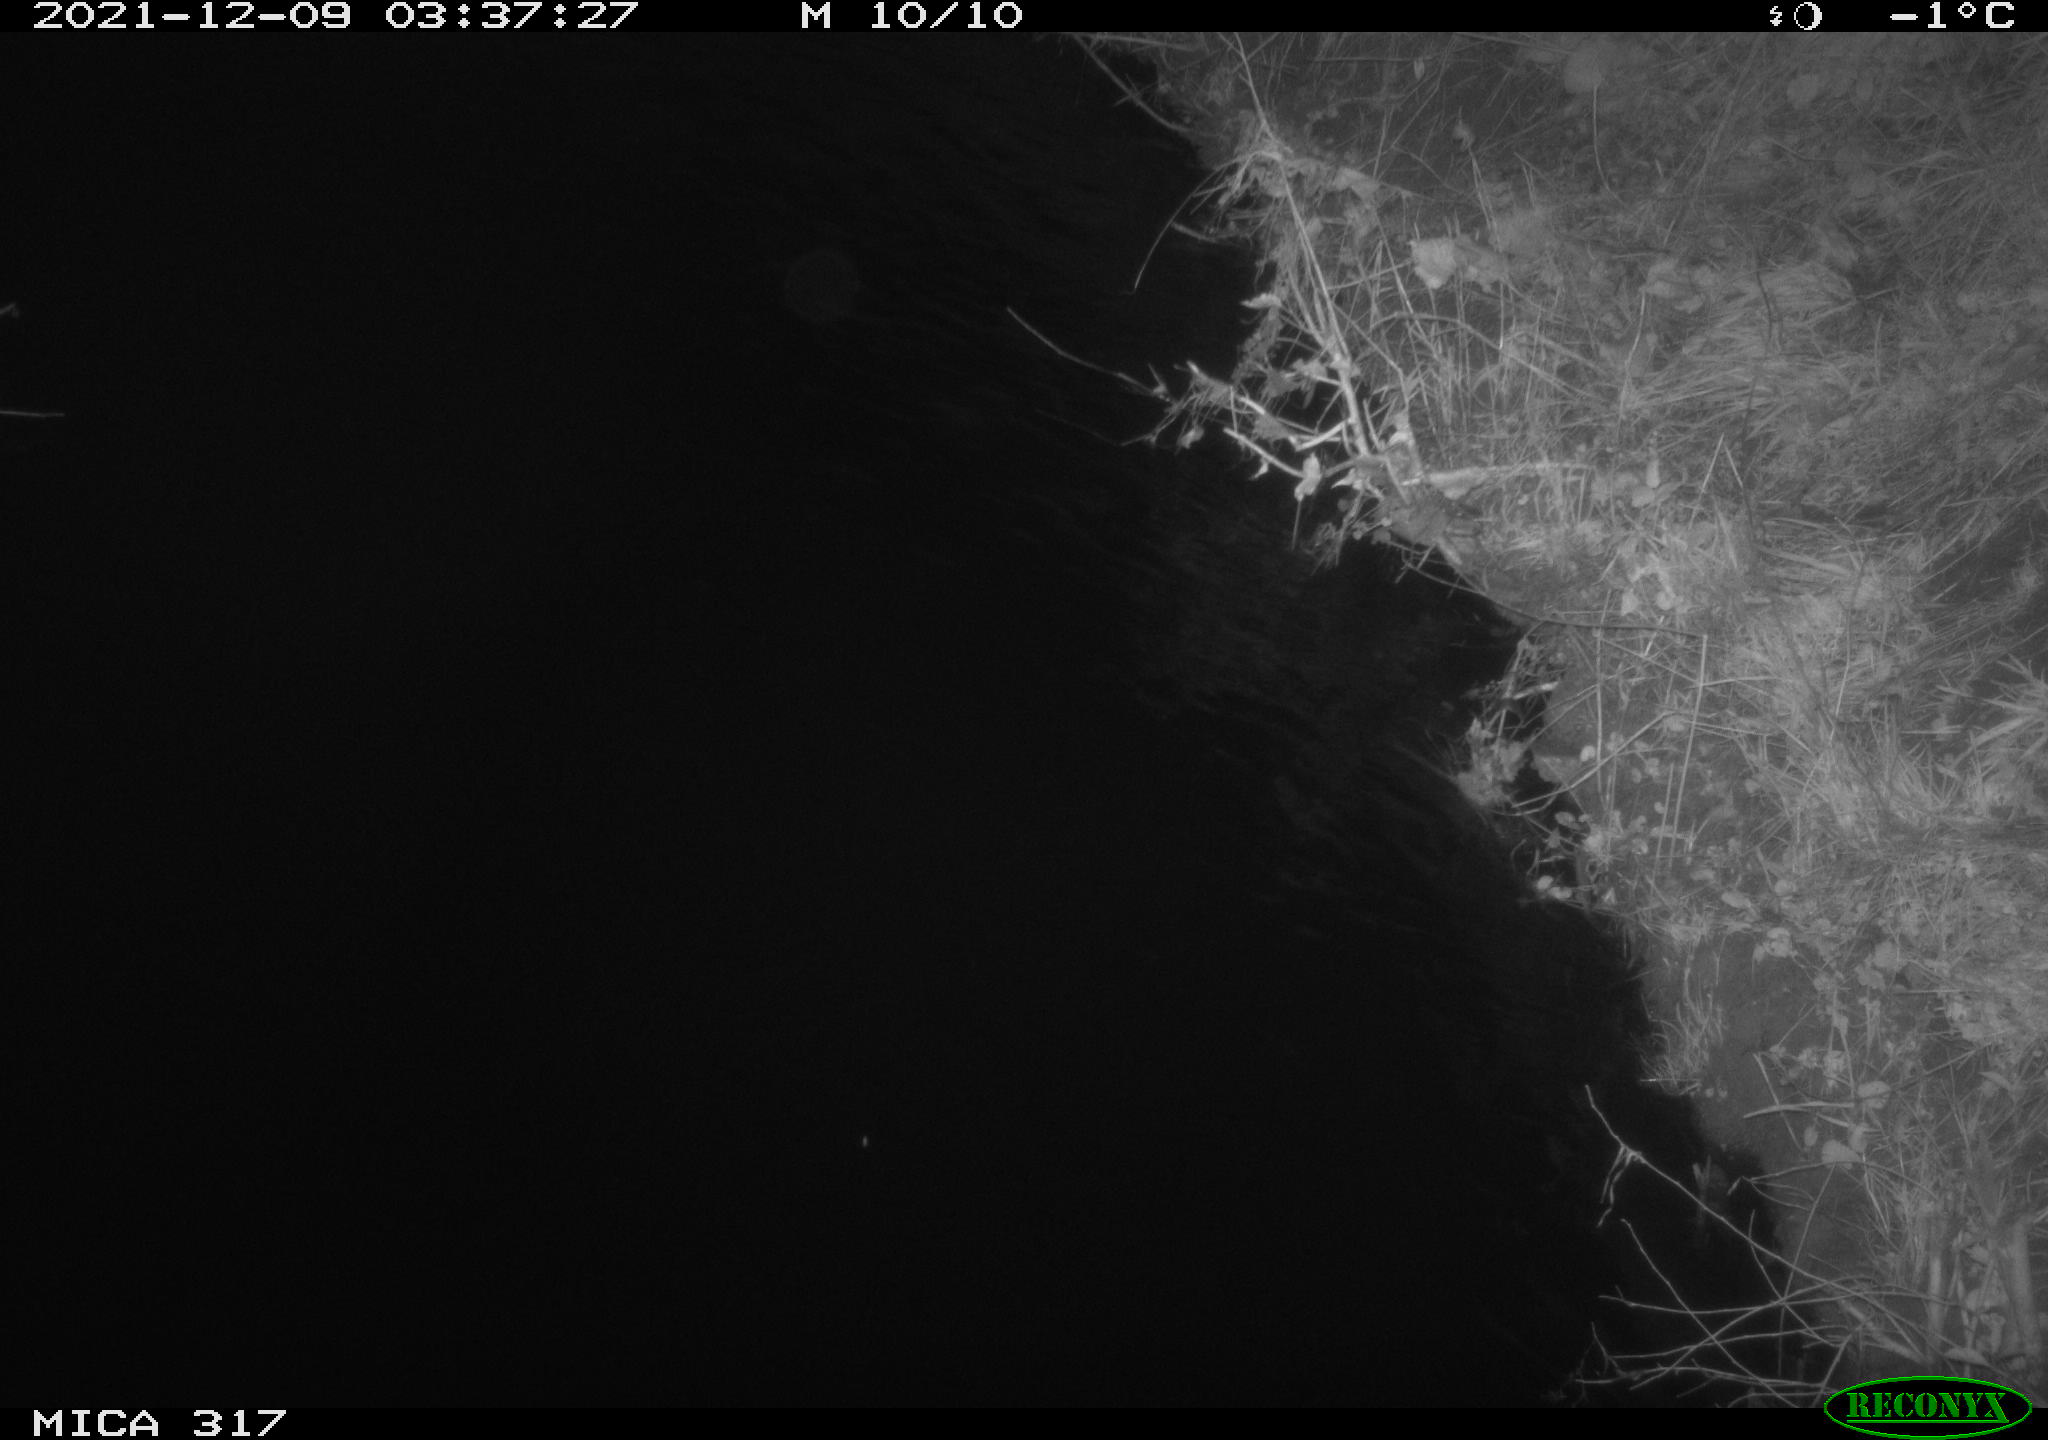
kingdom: Animalia
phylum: Chordata
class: Aves
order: Anseriformes
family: Anatidae
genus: Anas
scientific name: Anas platyrhynchos
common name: Mallard
